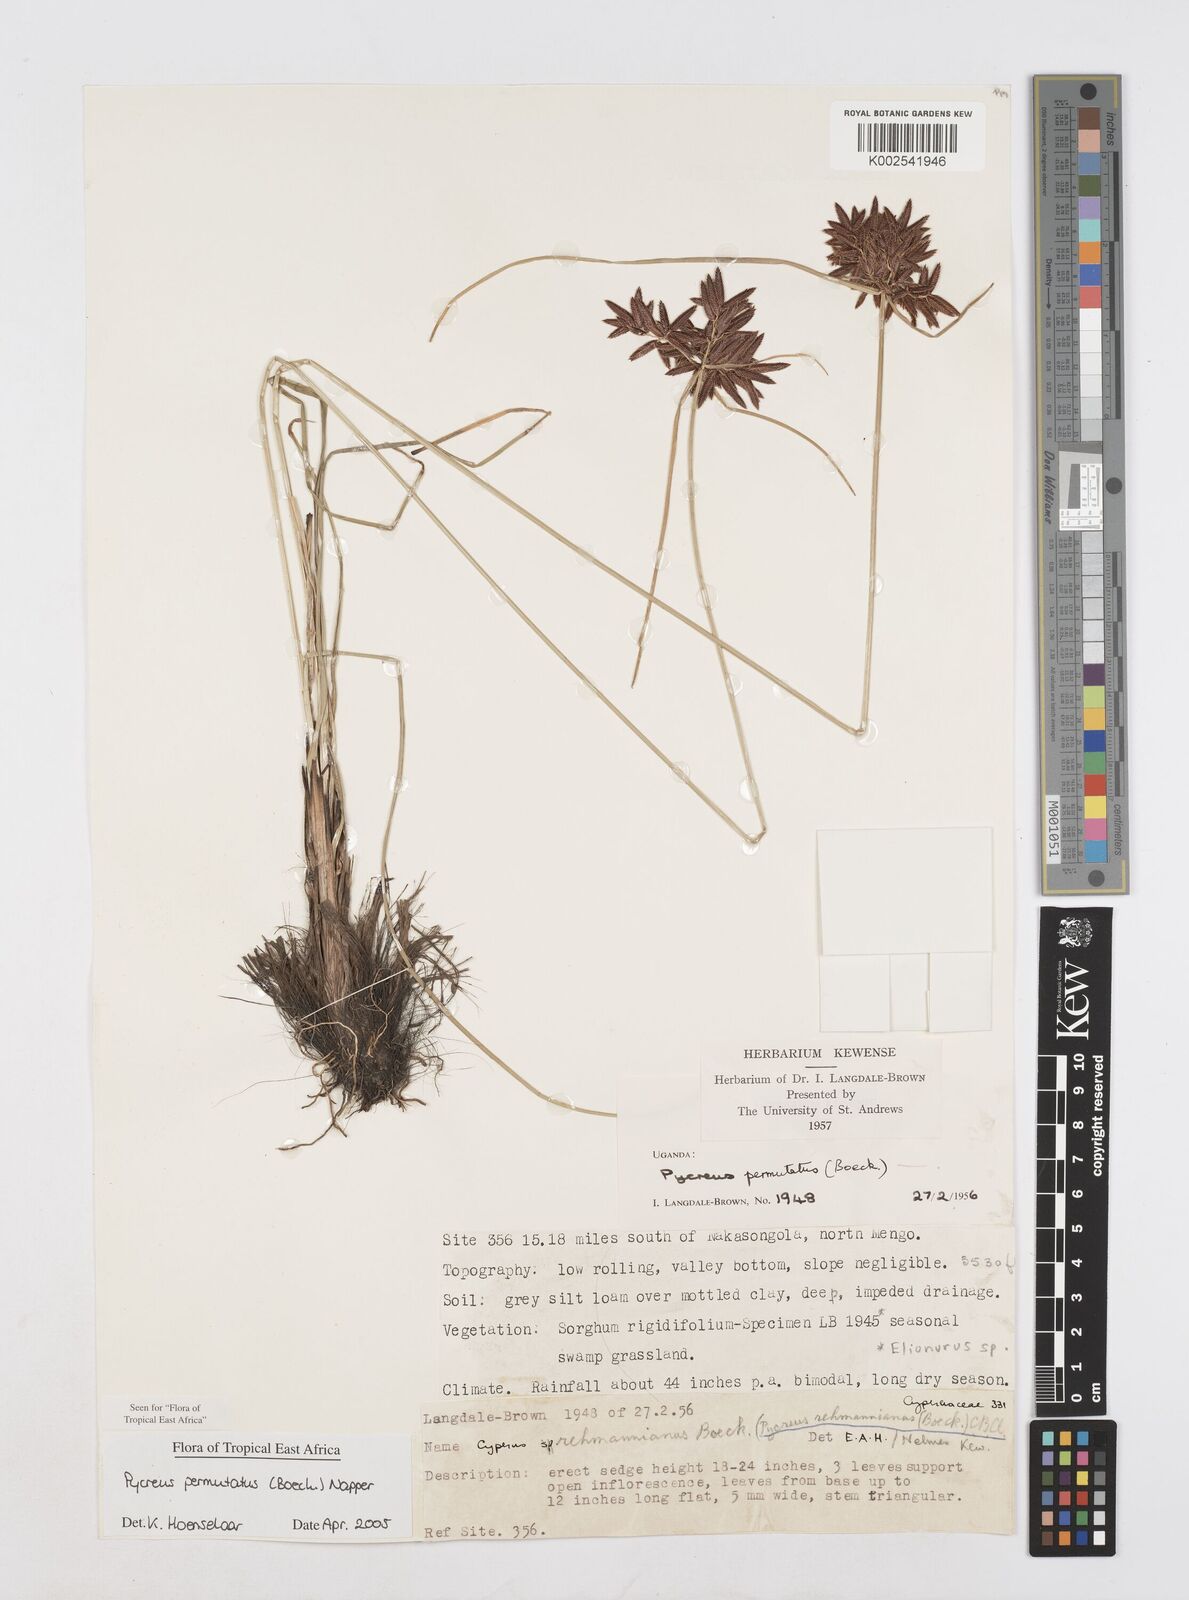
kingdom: Plantae
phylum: Tracheophyta
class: Liliopsida
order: Poales
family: Cyperaceae
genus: Cyperus
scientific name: Cyperus nigricans
